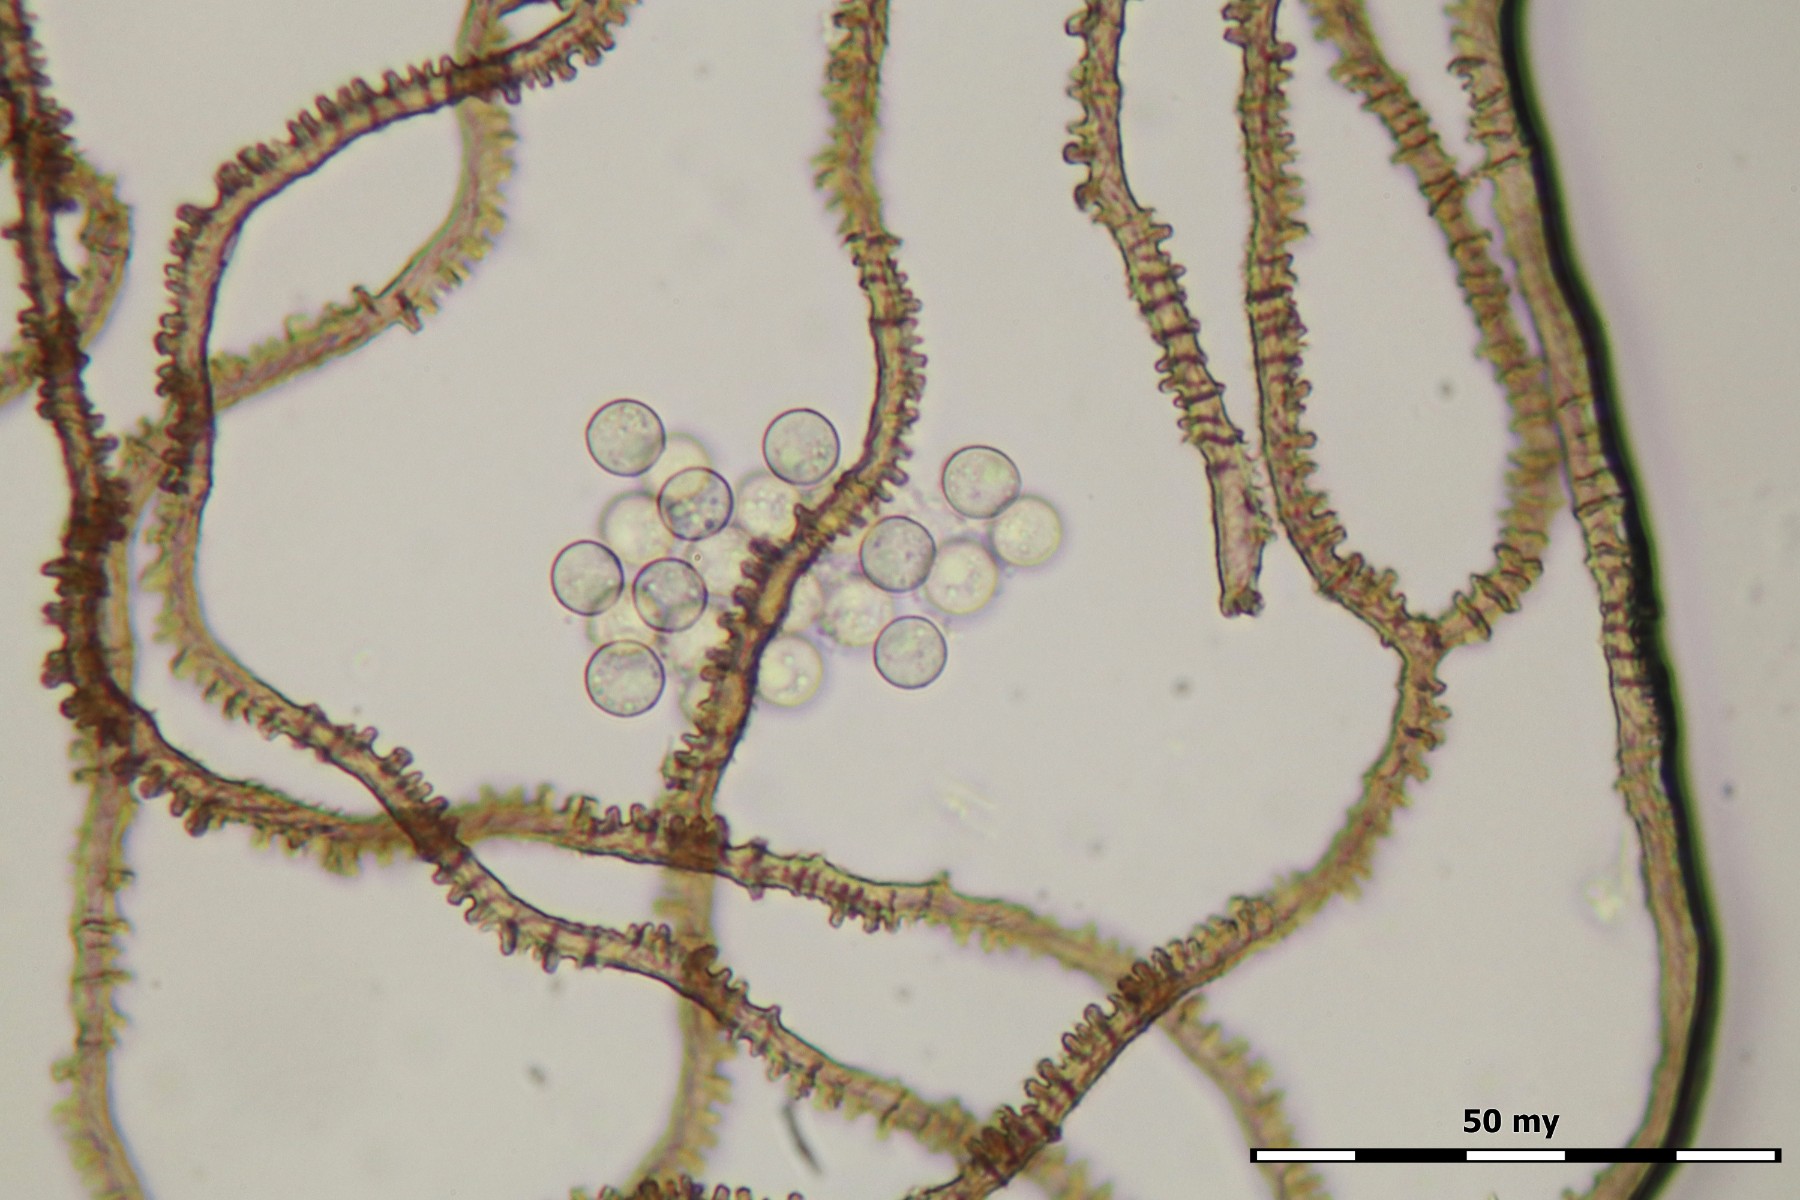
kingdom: Protozoa
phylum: Mycetozoa
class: Myxomycetes
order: Trichiales
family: Arcyriaceae
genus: Arcyria
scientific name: Arcyria affinis
